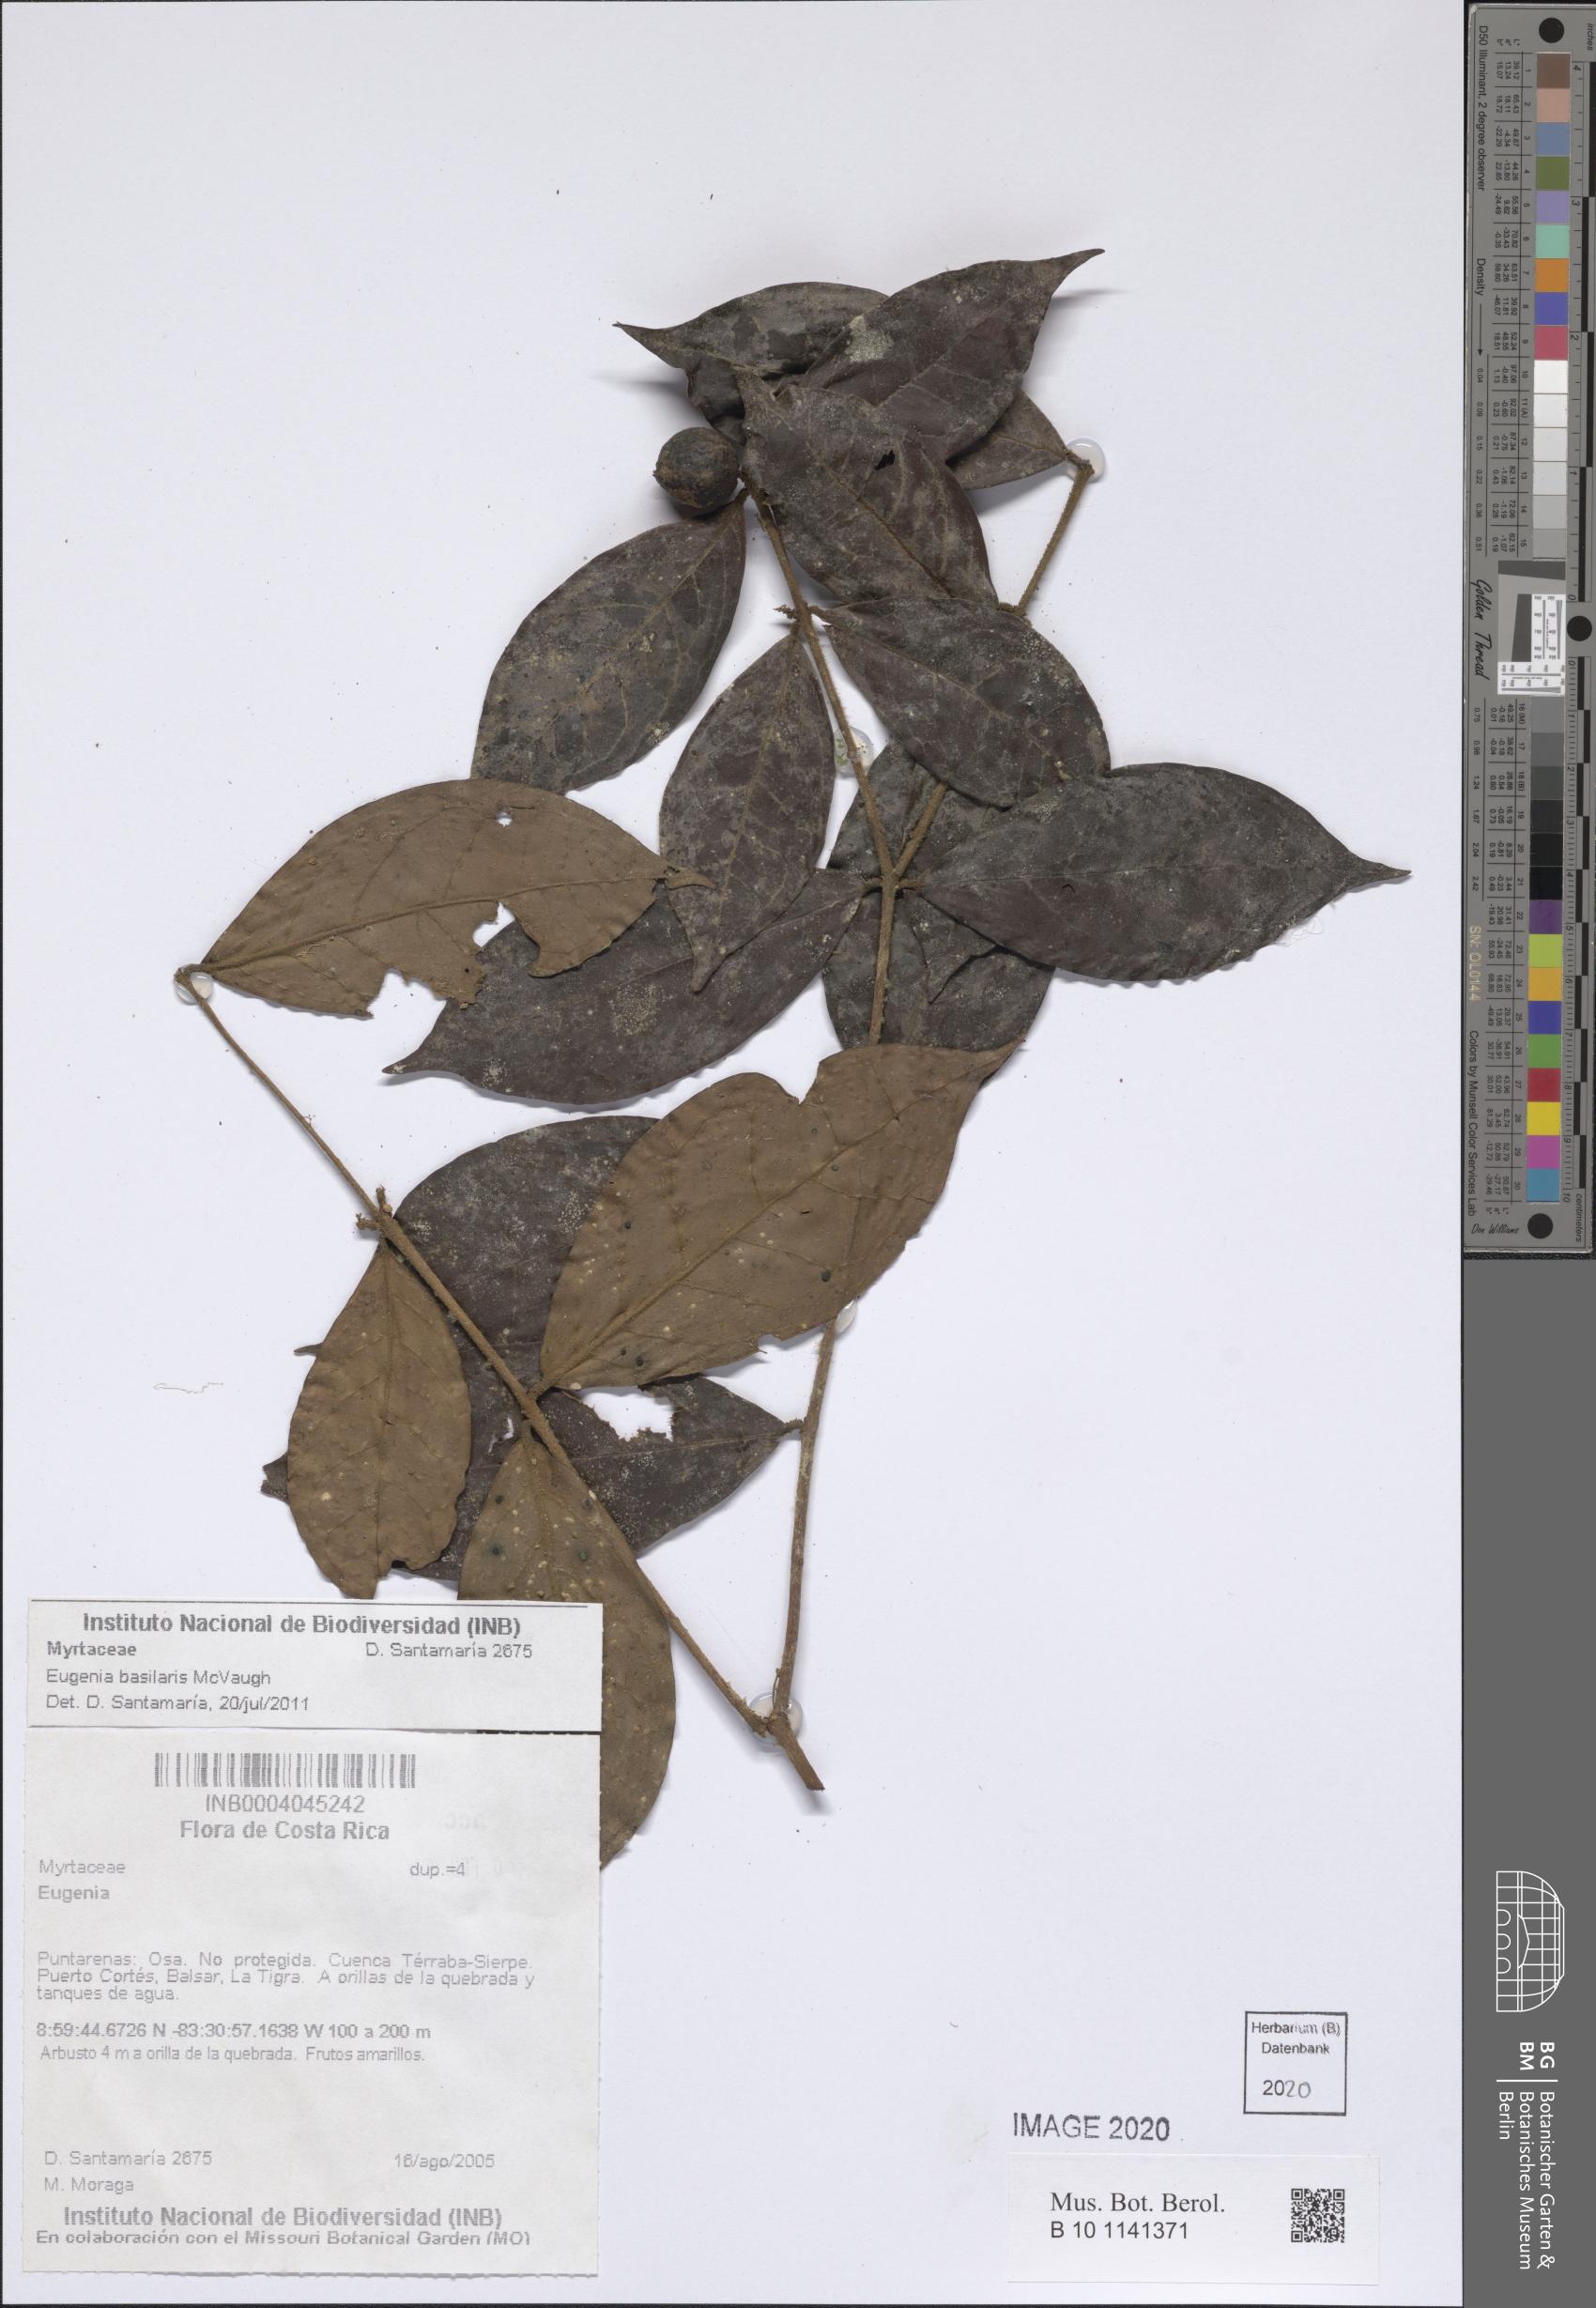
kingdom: Plantae
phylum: Tracheophyta
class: Magnoliopsida
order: Myrtales
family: Myrtaceae
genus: Eugenia
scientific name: Eugenia
